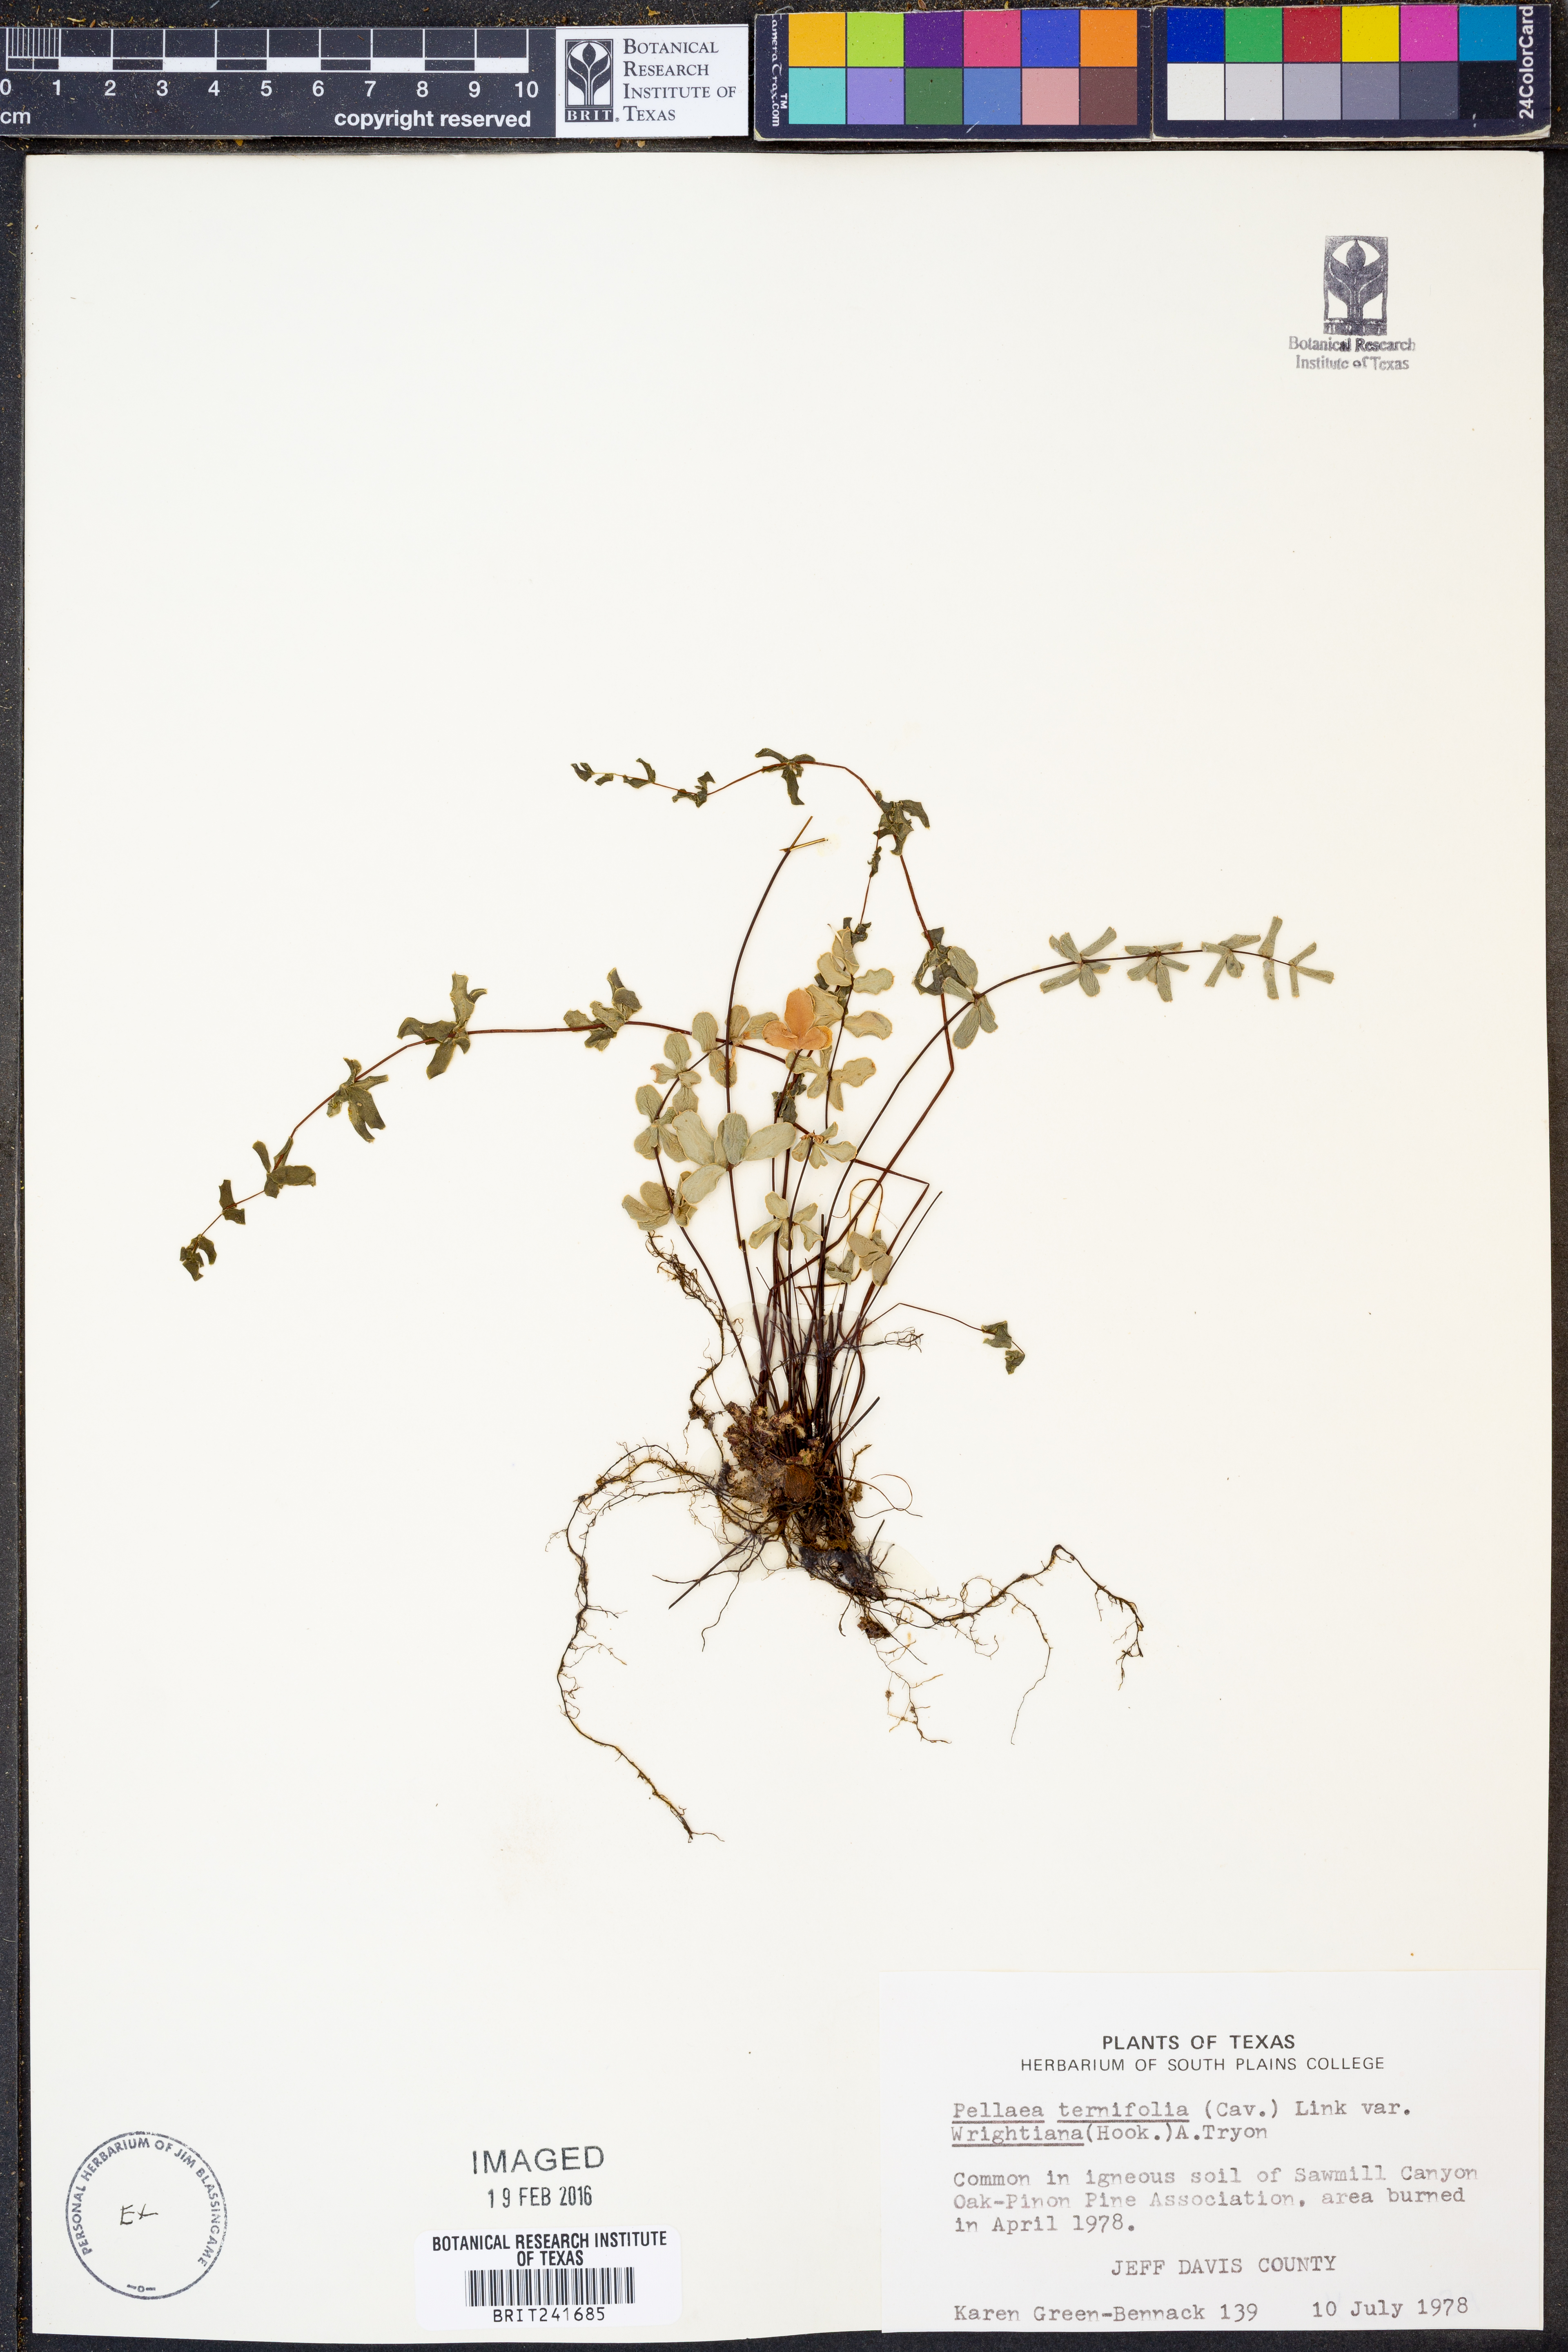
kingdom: Plantae
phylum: Tracheophyta
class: Polypodiopsida
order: Polypodiales
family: Pteridaceae
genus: Pellaea
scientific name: Pellaea wrightiana
